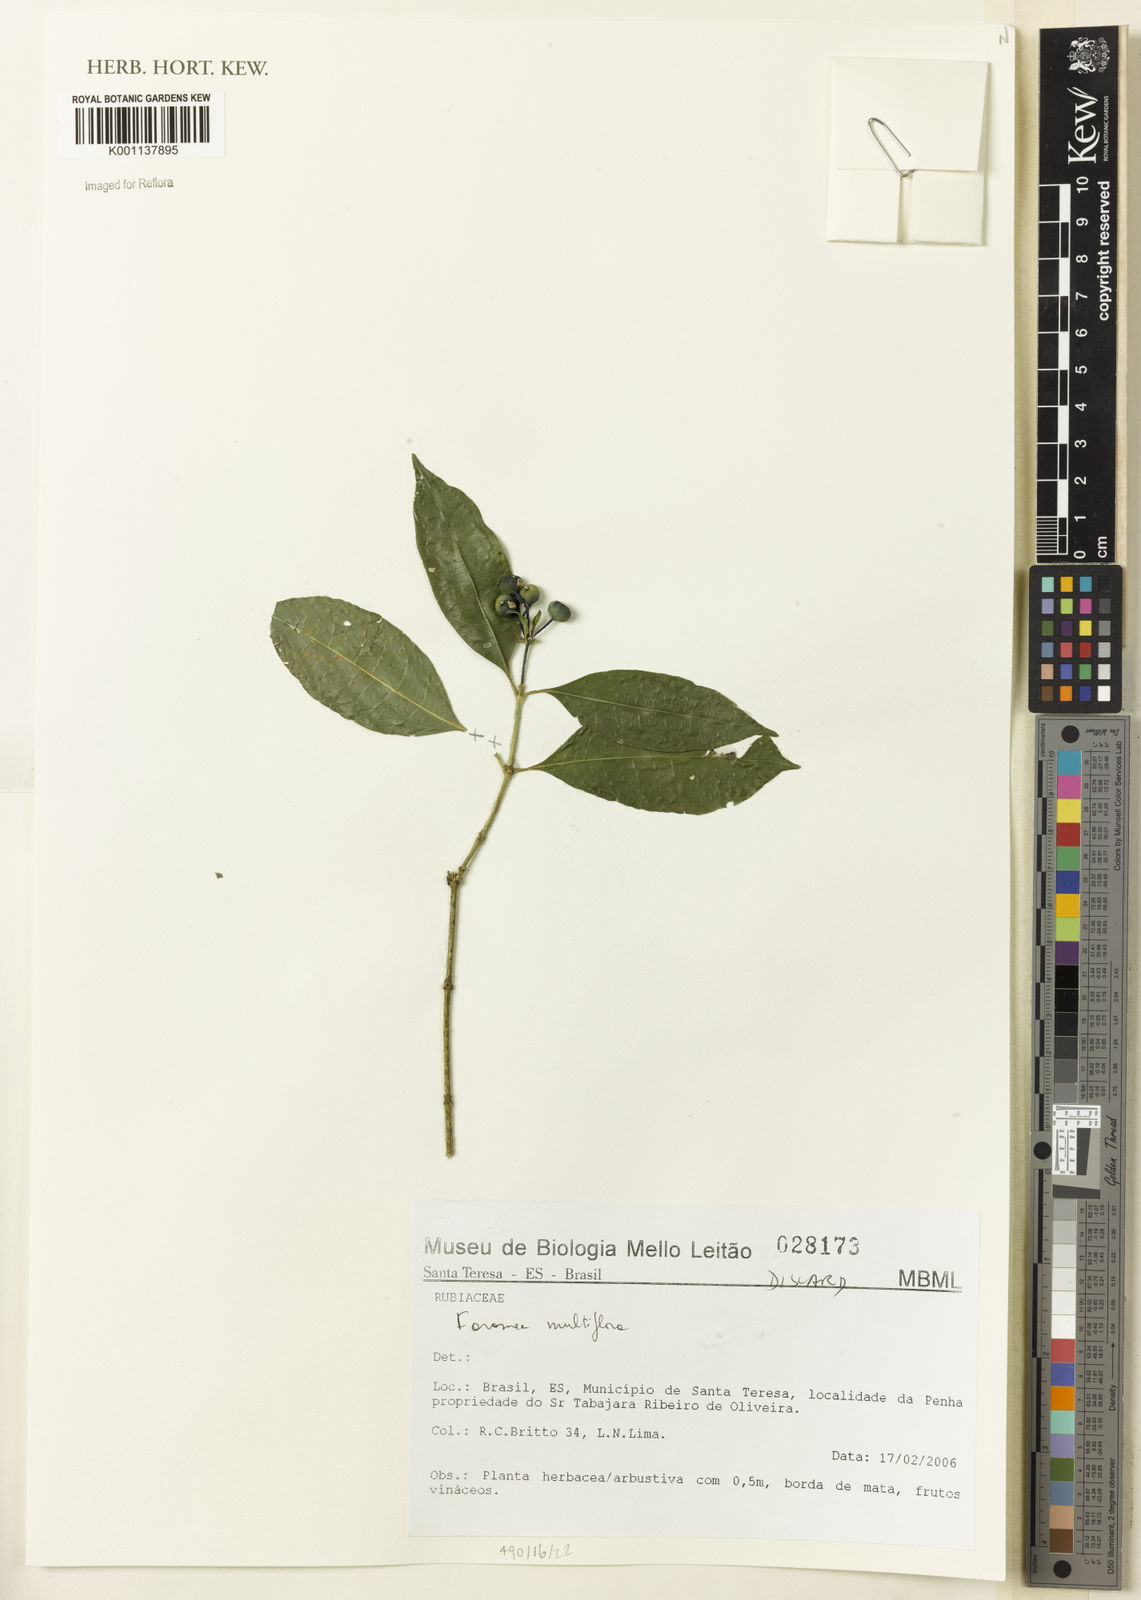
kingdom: Plantae
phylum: Tracheophyta
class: Magnoliopsida
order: Gentianales
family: Rubiaceae
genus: Faramea
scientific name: Faramea multiflora
